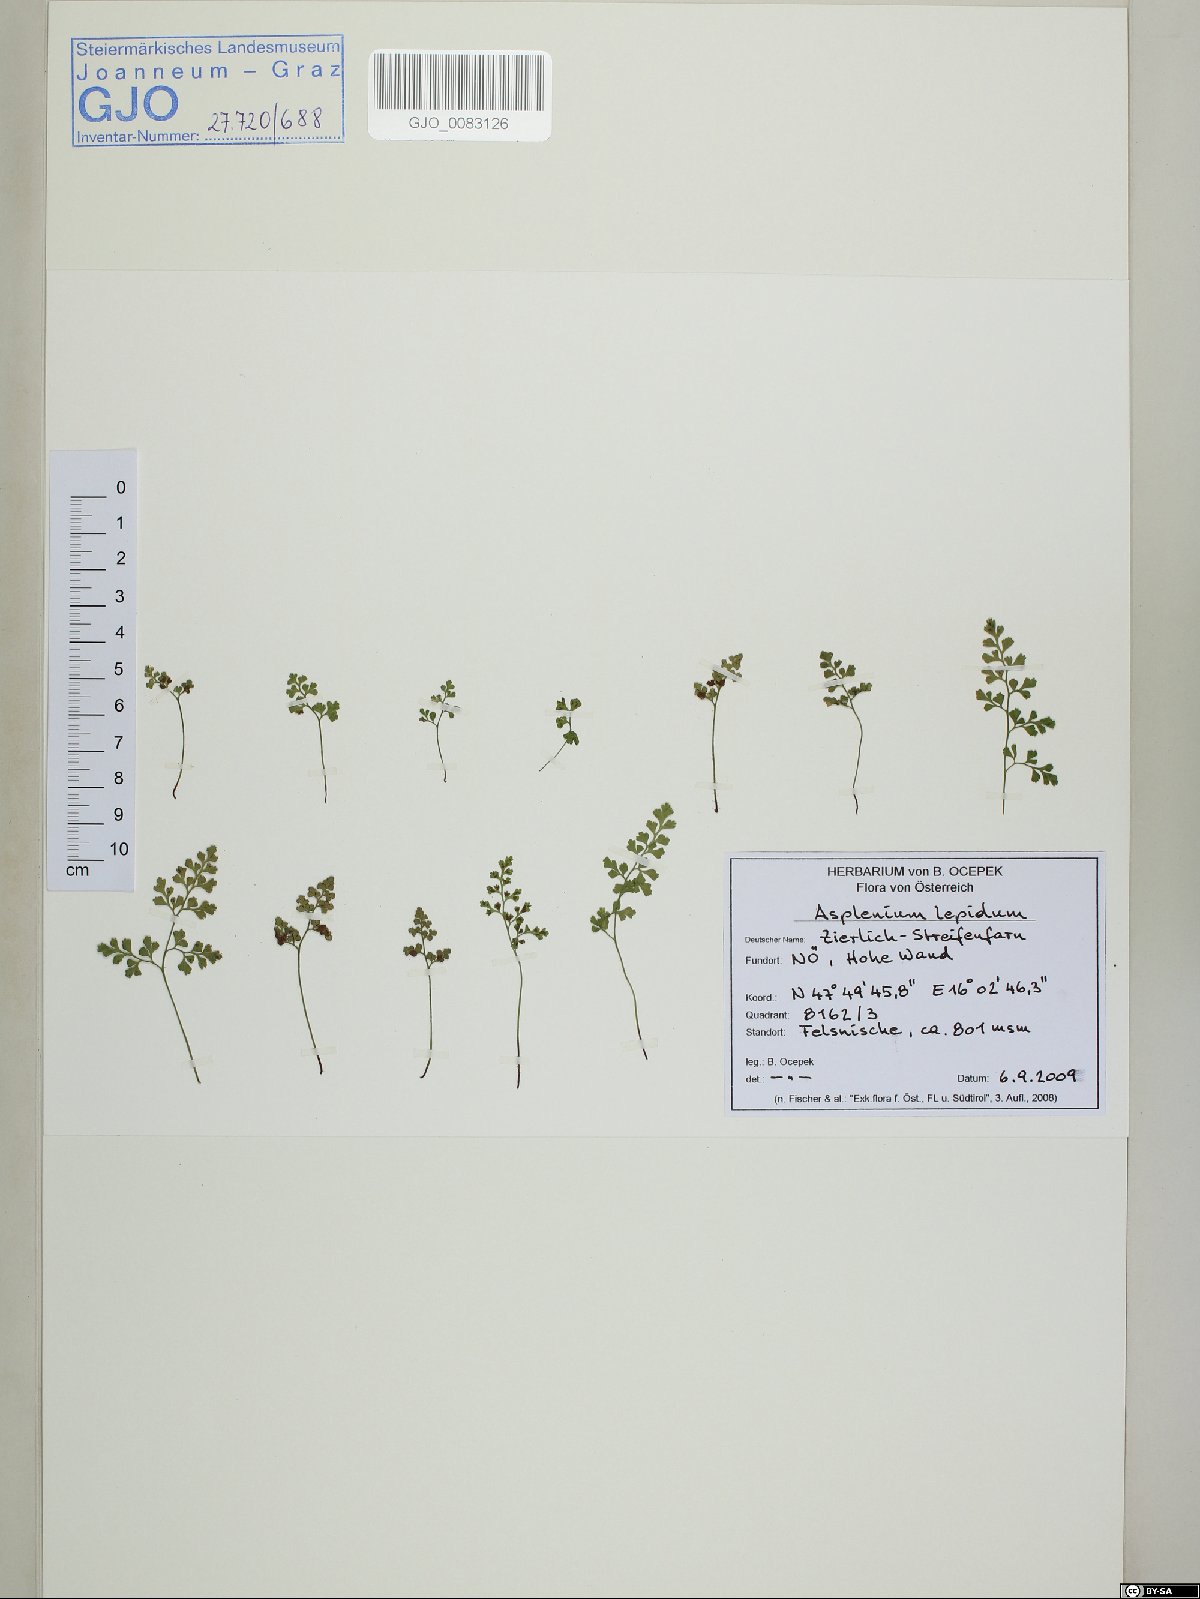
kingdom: Plantae
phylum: Tracheophyta
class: Polypodiopsida
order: Polypodiales
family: Aspleniaceae
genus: Asplenium
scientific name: Asplenium lepidum
